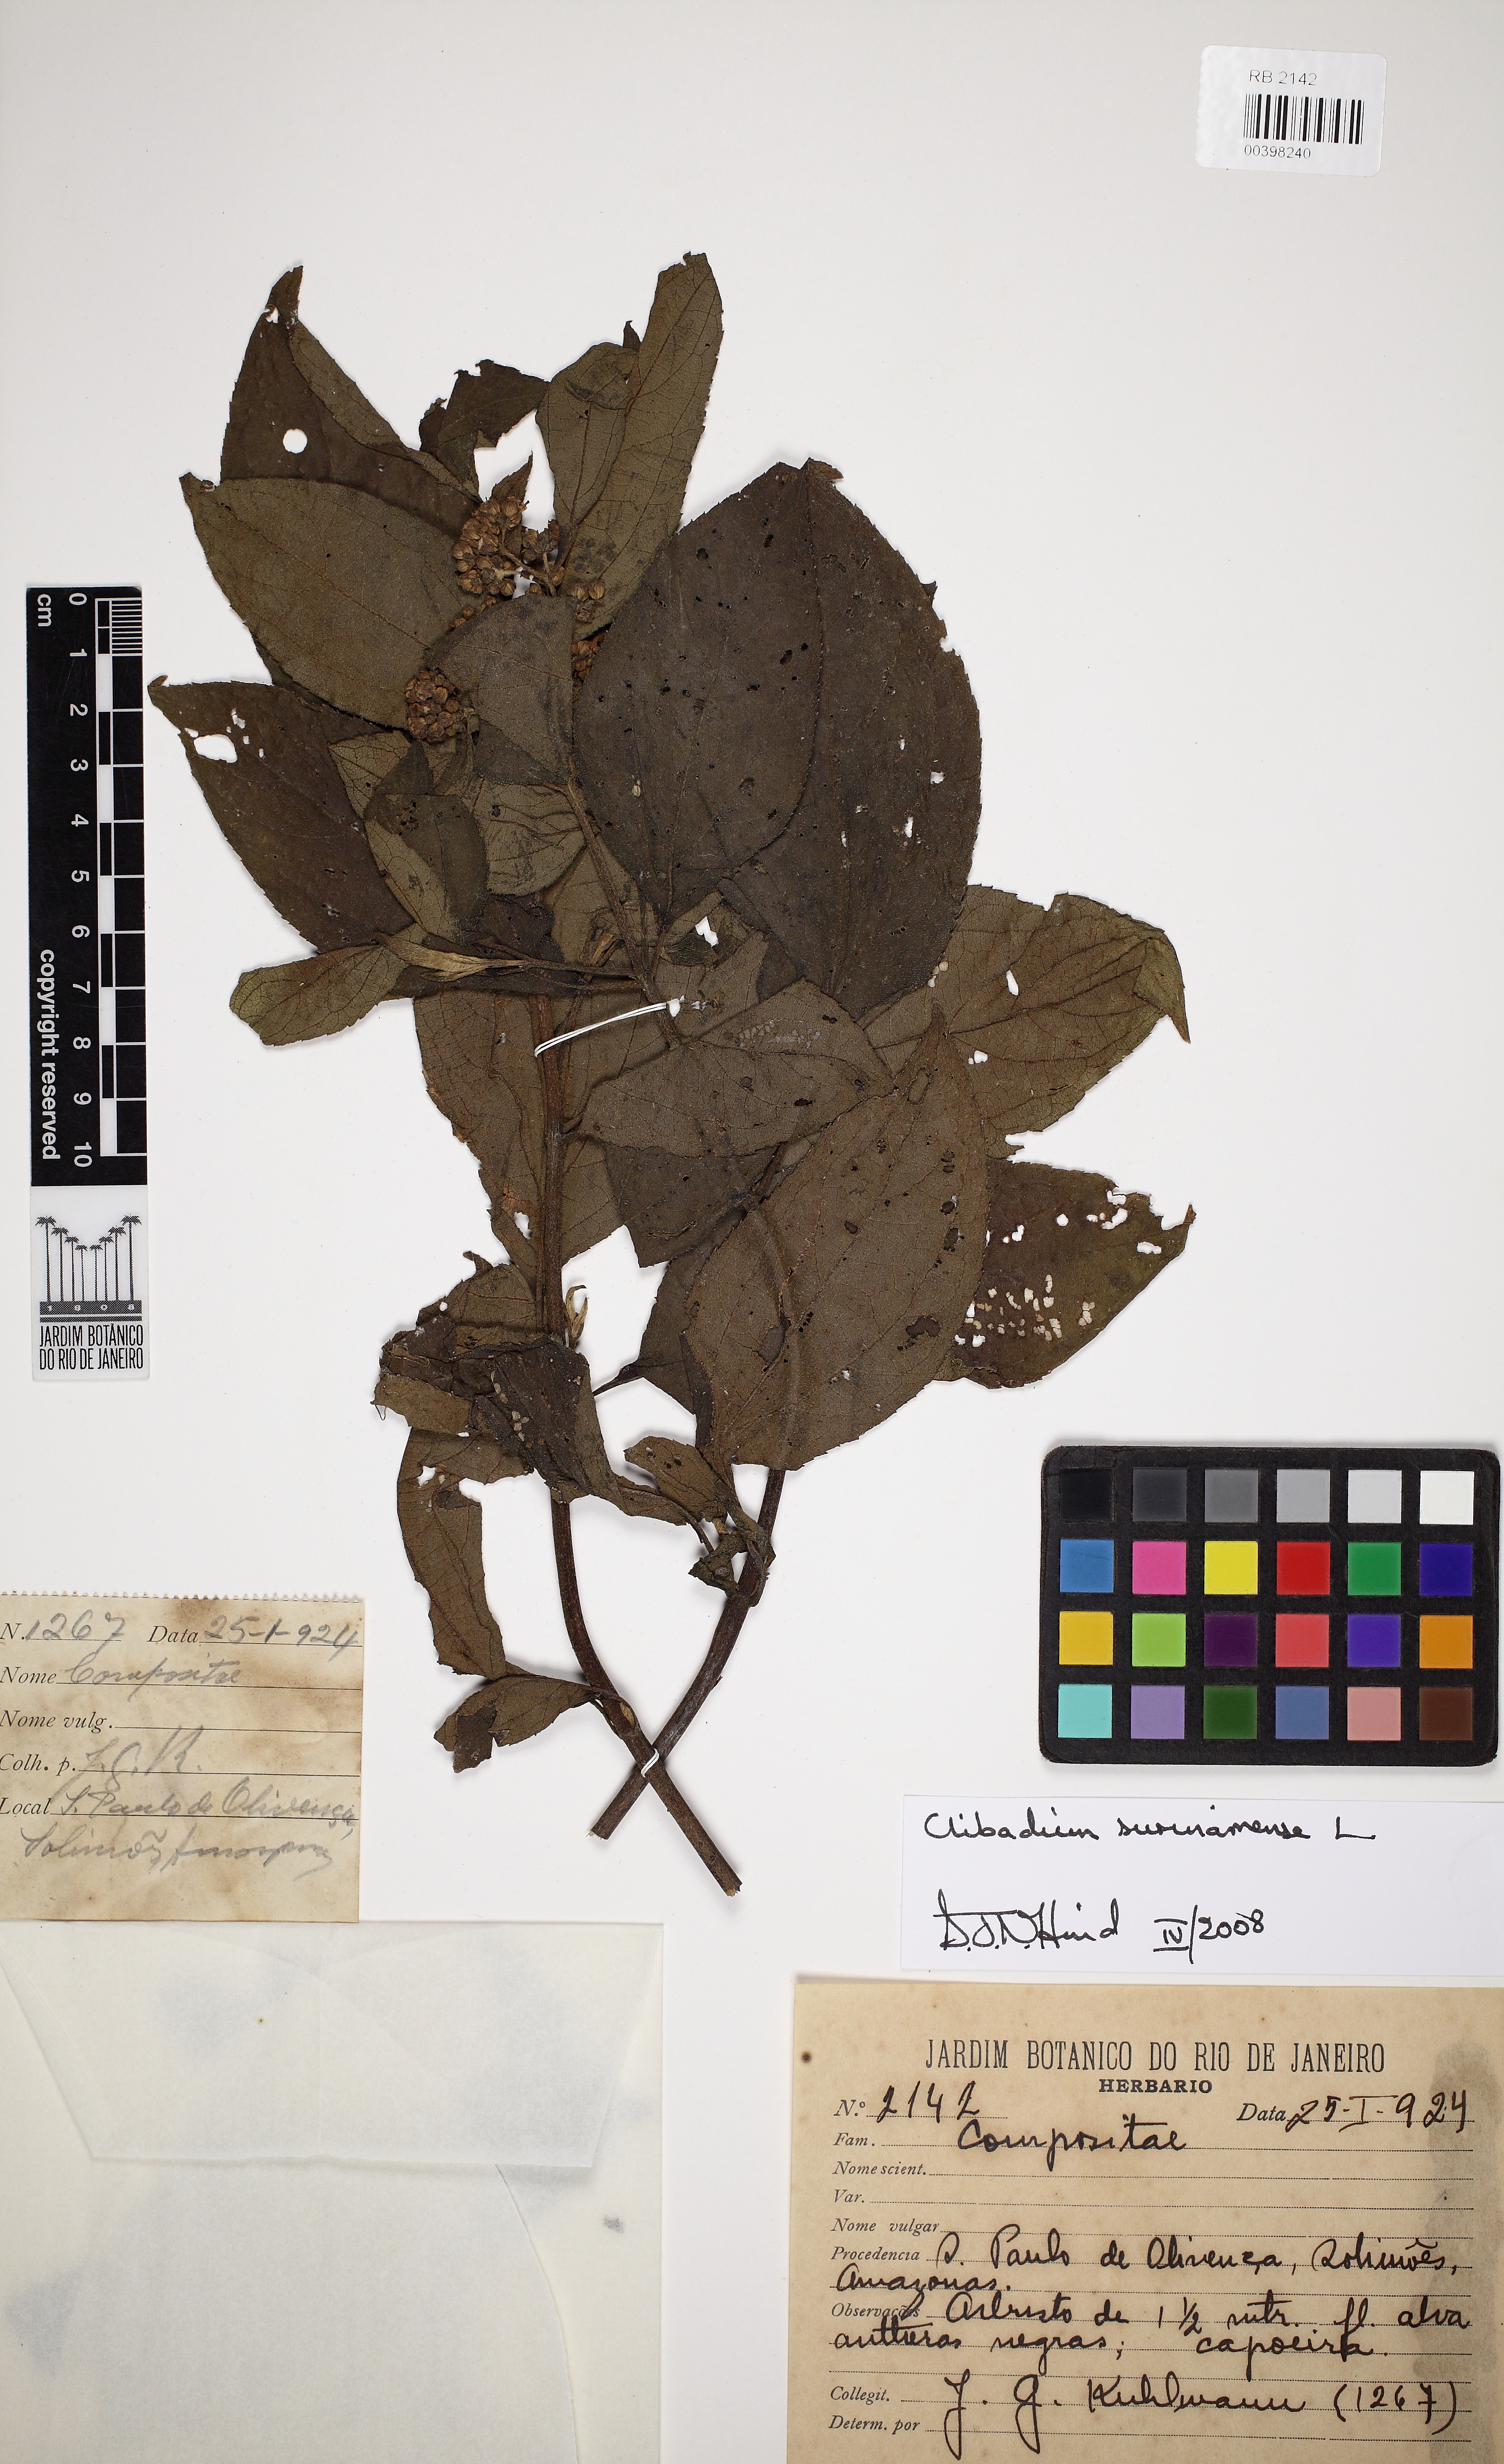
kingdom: Plantae
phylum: Tracheophyta
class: Magnoliopsida
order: Asterales
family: Asteraceae
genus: Clibadium
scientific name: Clibadium surinamense
